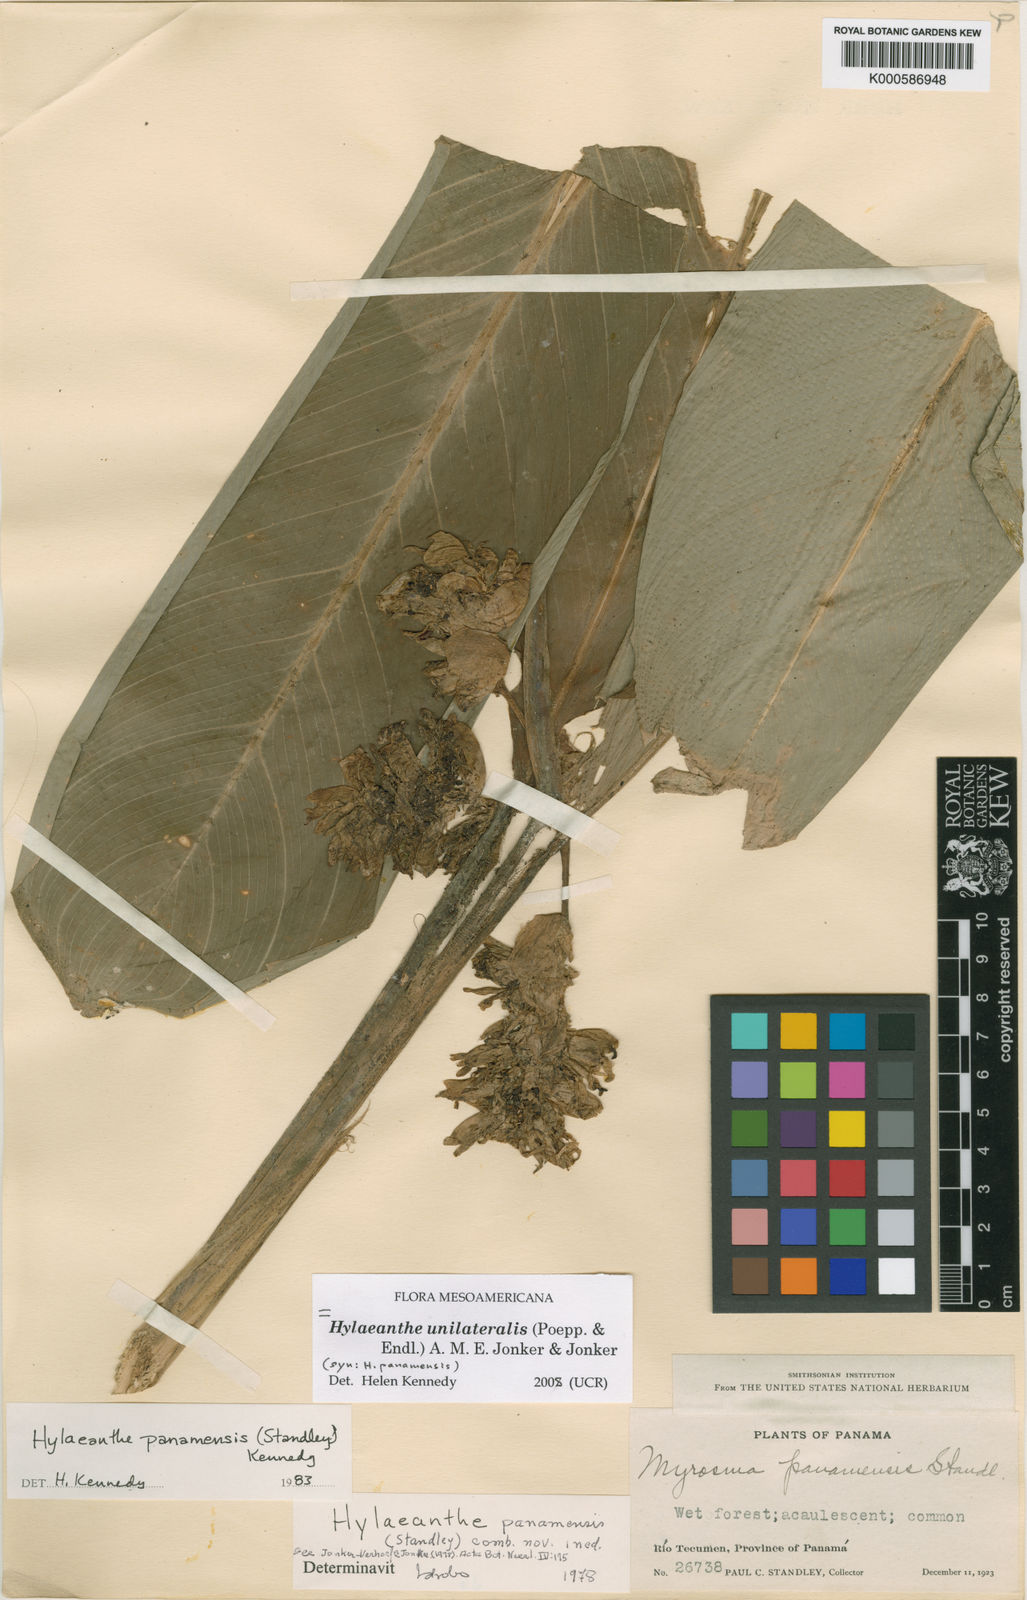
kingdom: Plantae
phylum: Tracheophyta
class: Liliopsida
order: Zingiberales
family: Marantaceae
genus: Hylaeanthe
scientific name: Hylaeanthe panamensis
